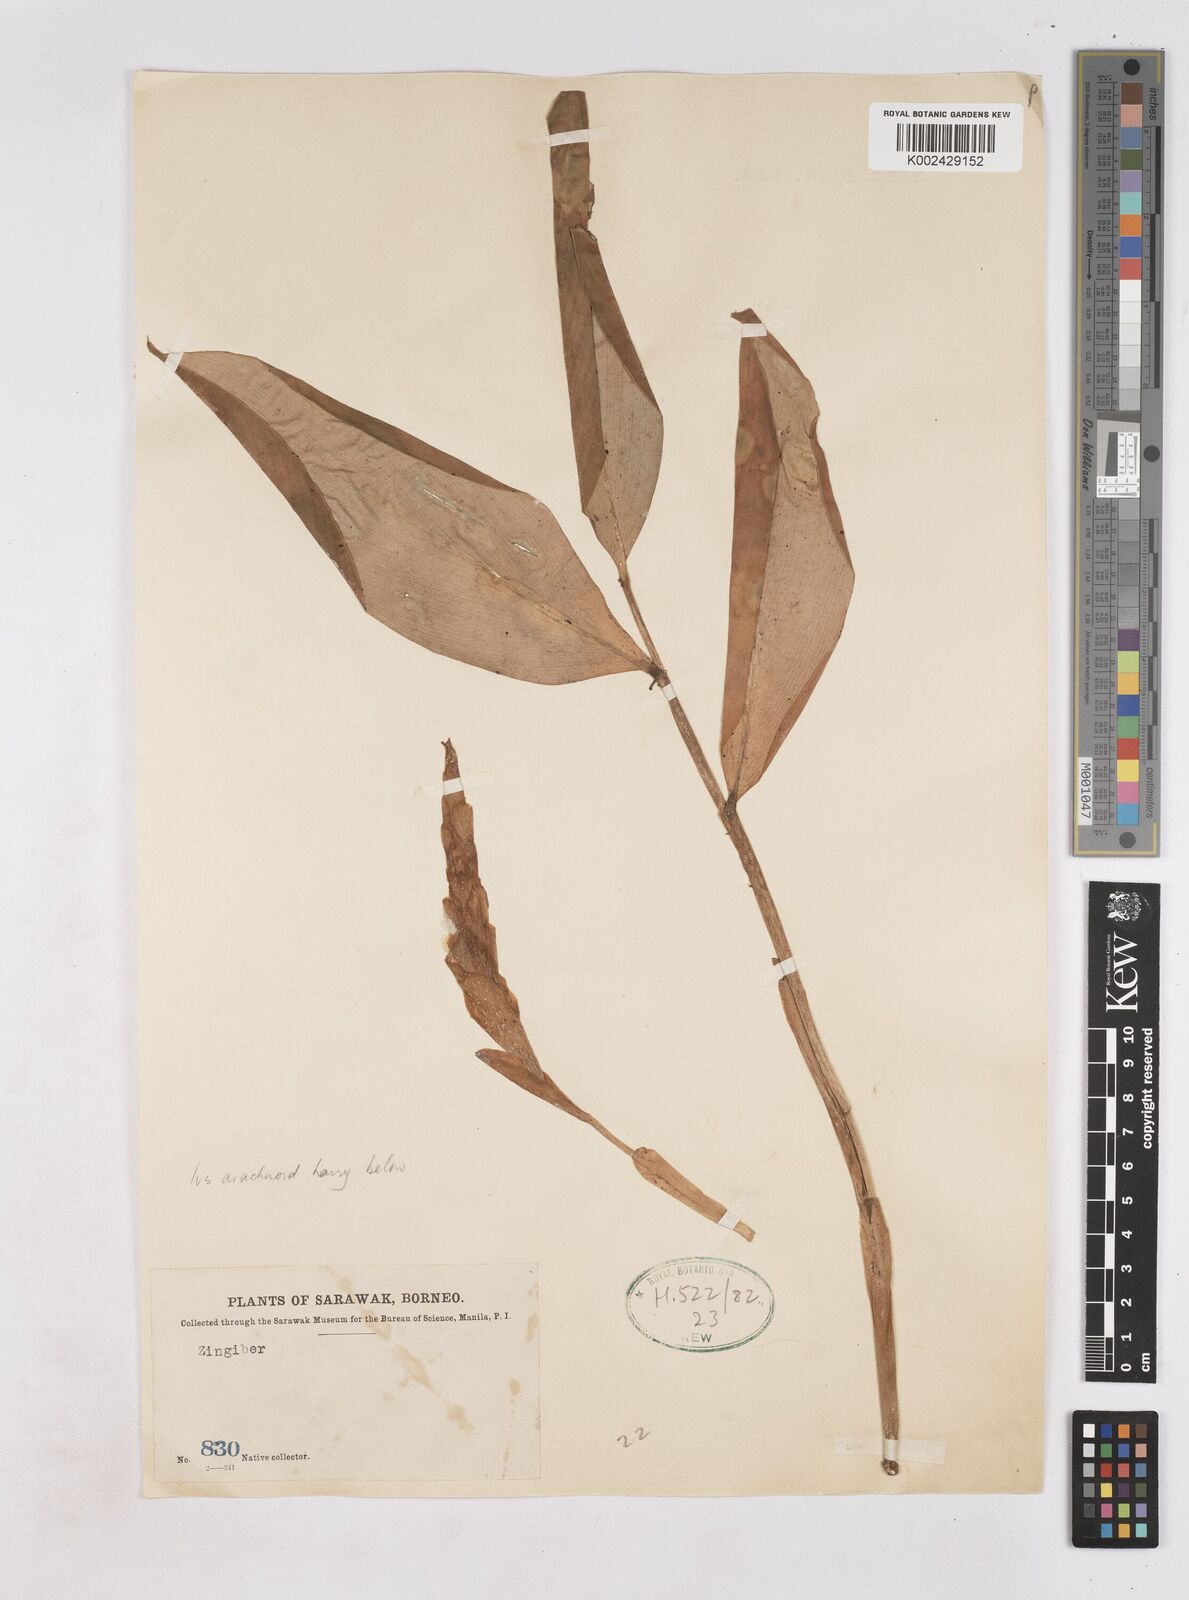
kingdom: Plantae
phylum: Tracheophyta
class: Liliopsida
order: Zingiberales
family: Zingiberaceae
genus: Zingiber
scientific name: Zingiber
